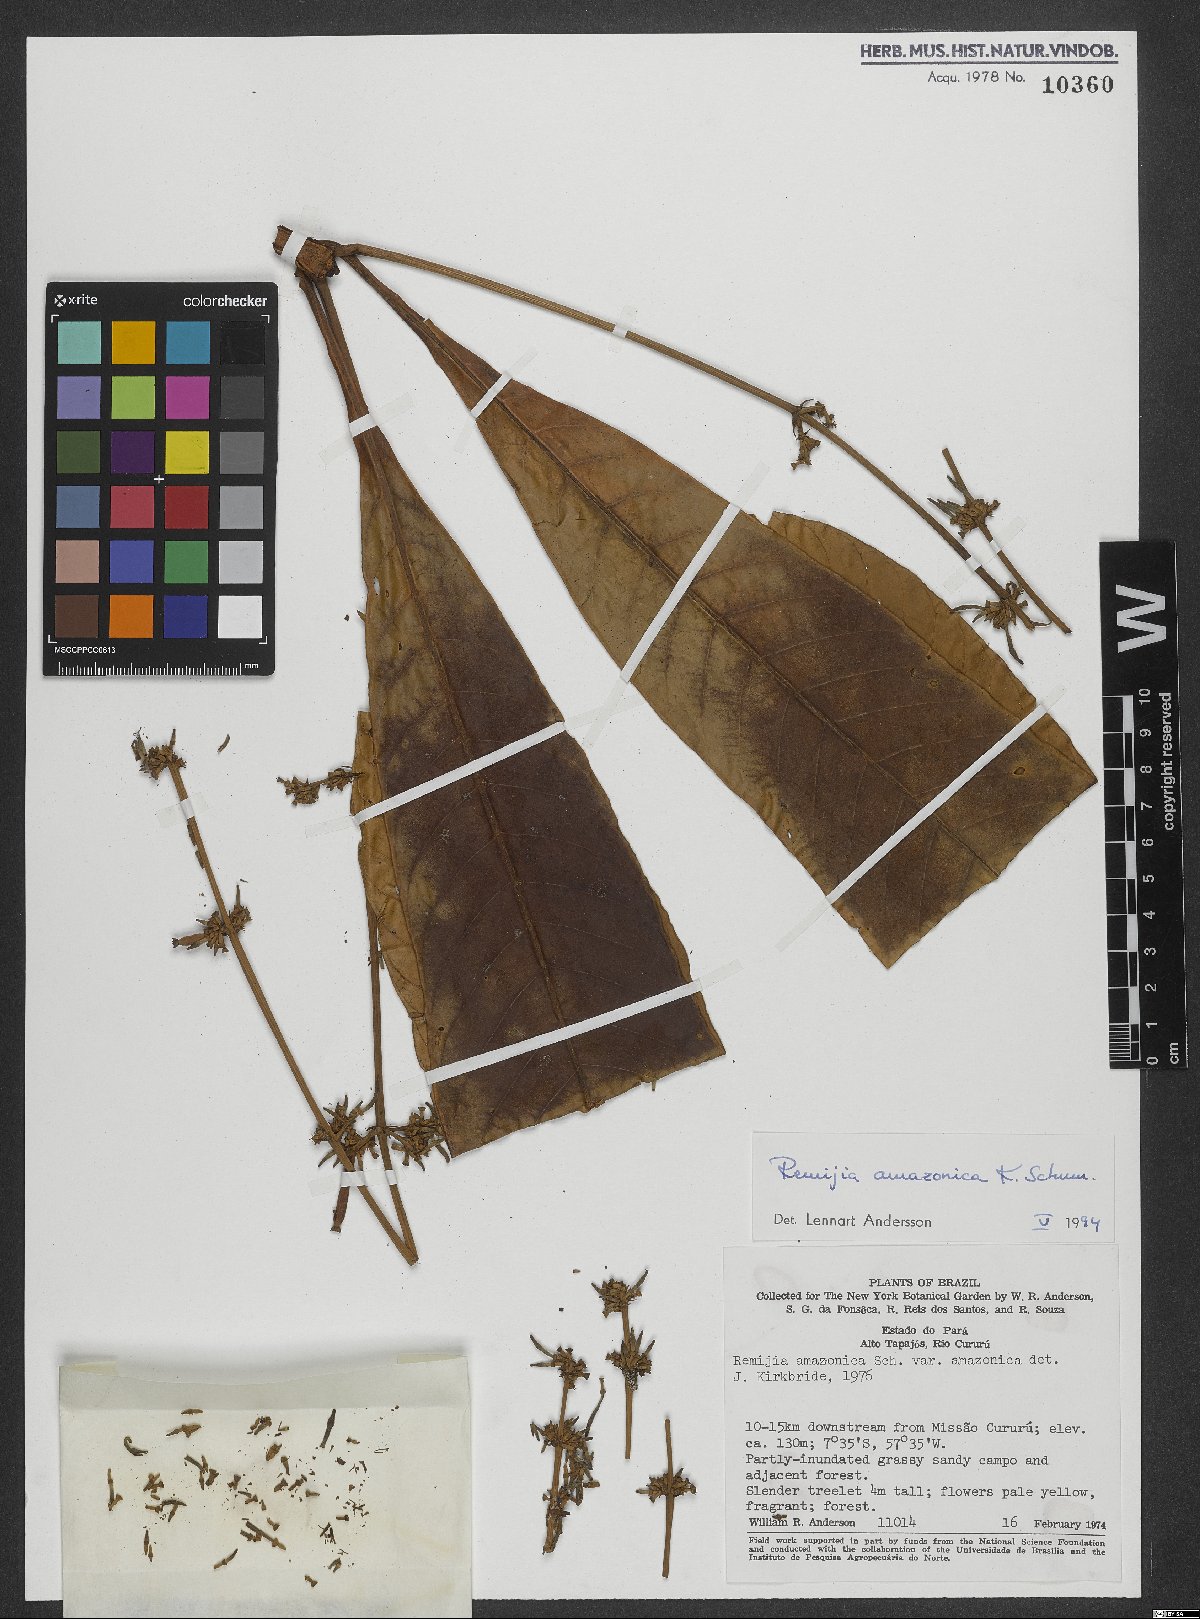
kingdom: Plantae
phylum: Tracheophyta
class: Magnoliopsida
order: Gentianales
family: Rubiaceae
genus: Remijia
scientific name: Remijia amazonica
